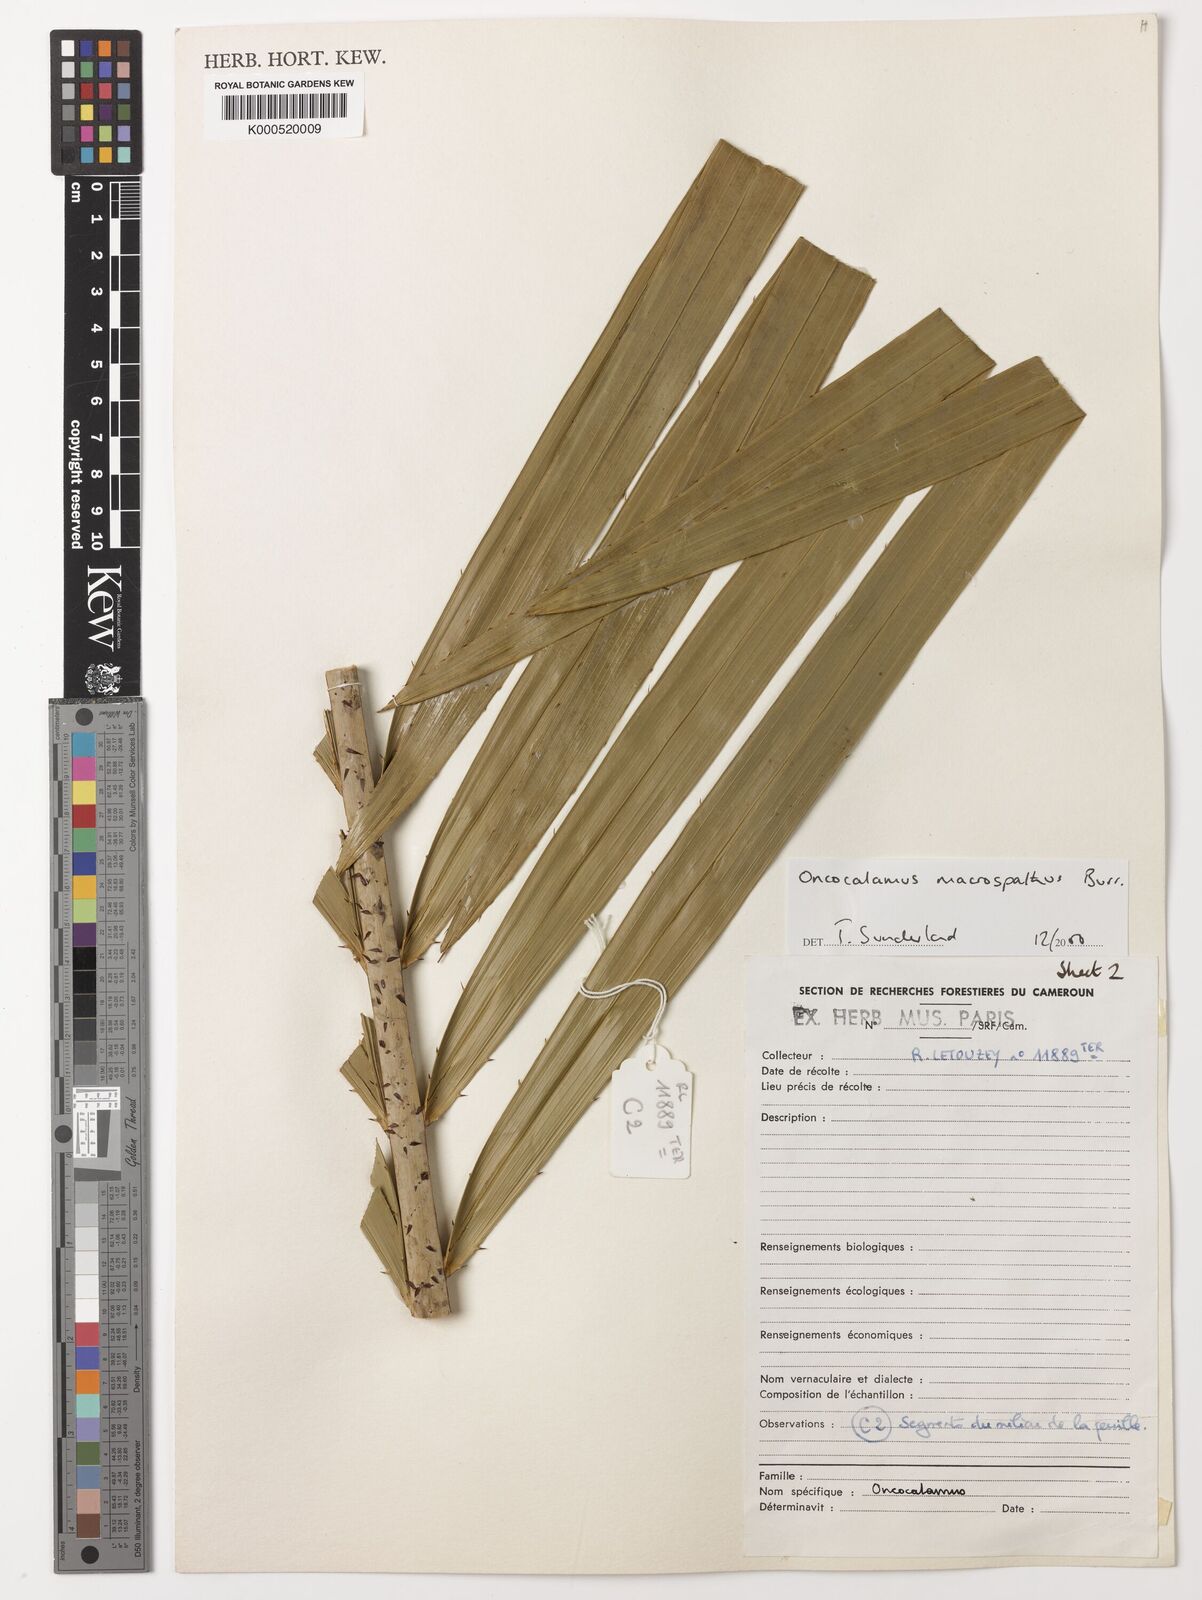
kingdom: Plantae
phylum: Tracheophyta
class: Liliopsida
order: Arecales
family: Arecaceae
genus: Oncocalamus
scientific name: Oncocalamus macrospathus
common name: Rattan
